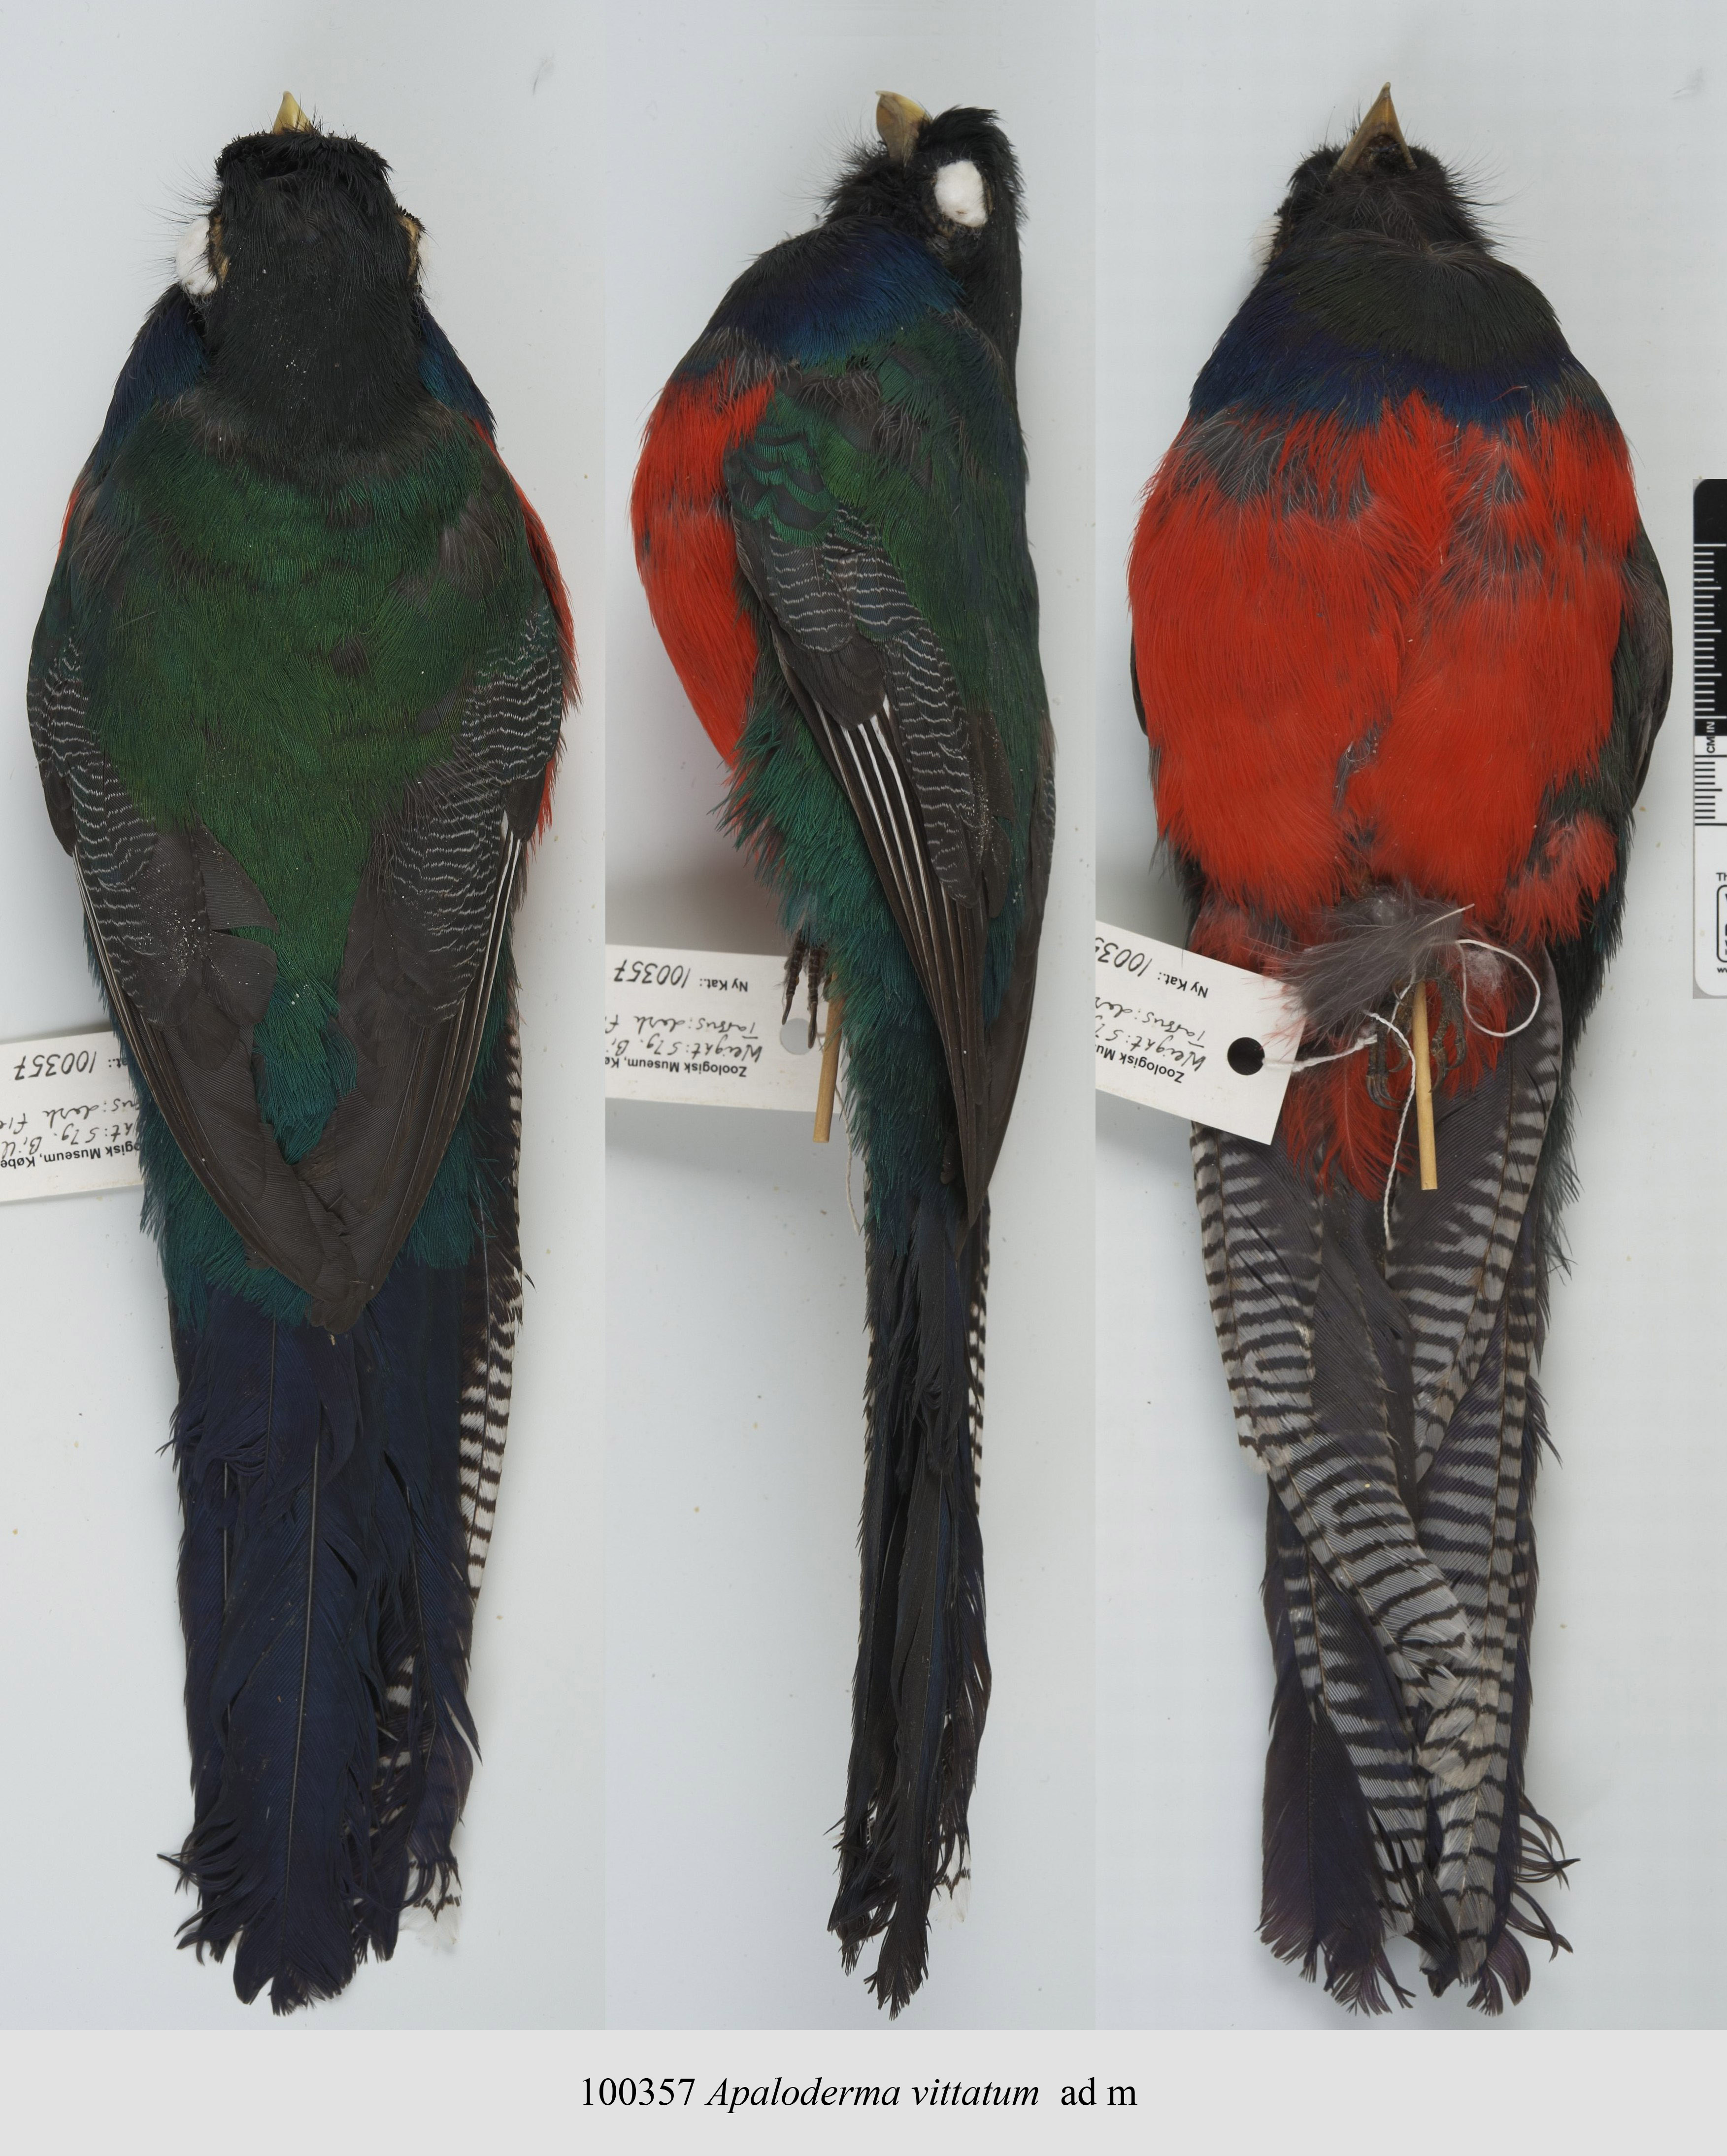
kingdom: Animalia
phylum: Chordata
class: Aves
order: Trogoniformes
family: Trogonidae
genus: Apaloderma
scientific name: Apaloderma vittatum
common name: Bar-tailed trogon
